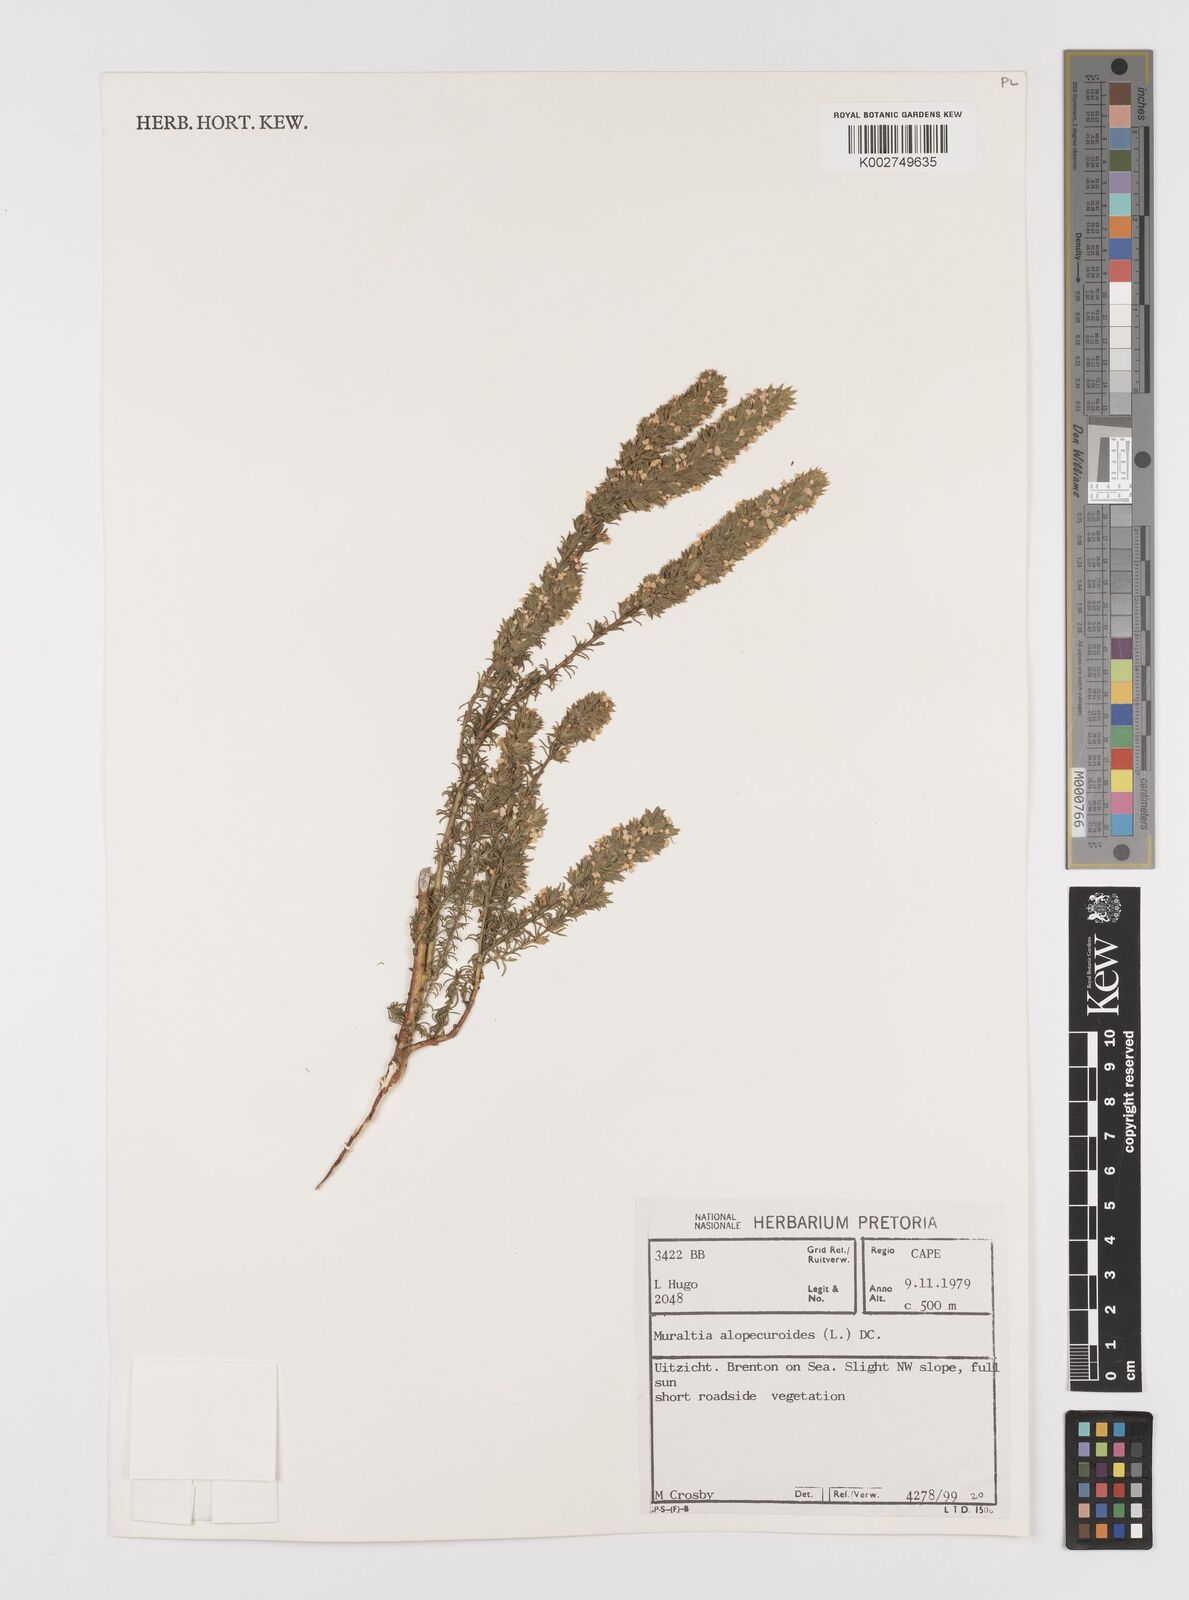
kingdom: Plantae
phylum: Tracheophyta
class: Magnoliopsida
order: Fabales
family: Polygalaceae
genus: Muraltia
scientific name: Muraltia alopecuroides
